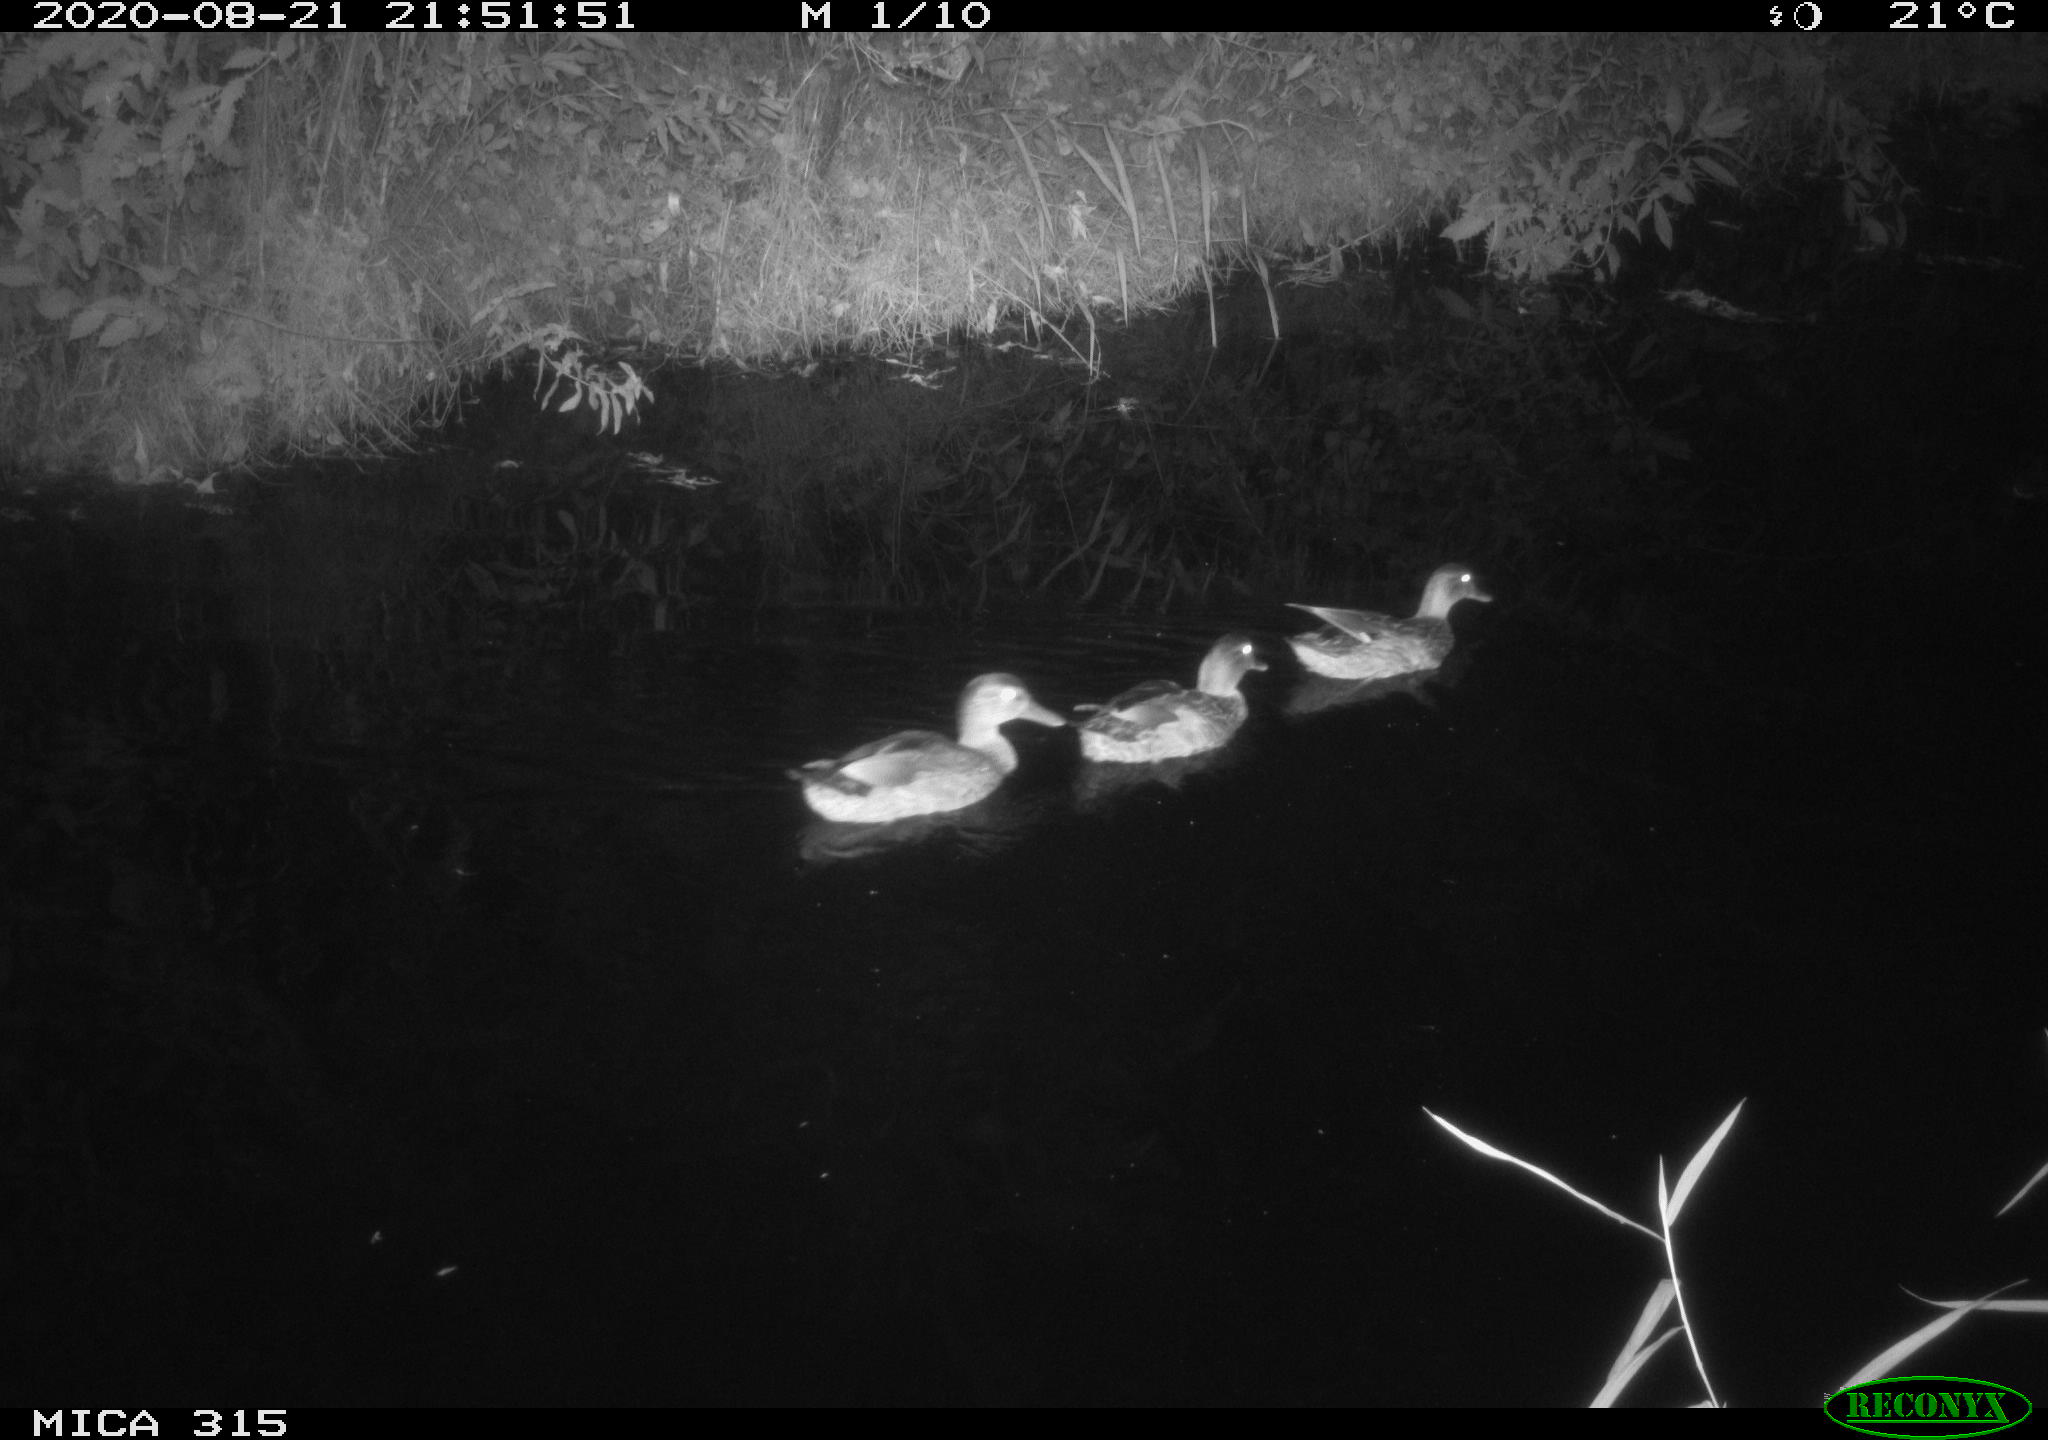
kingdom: Animalia
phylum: Chordata
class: Aves
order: Anseriformes
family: Anatidae
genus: Anas
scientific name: Anas platyrhynchos
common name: Mallard
